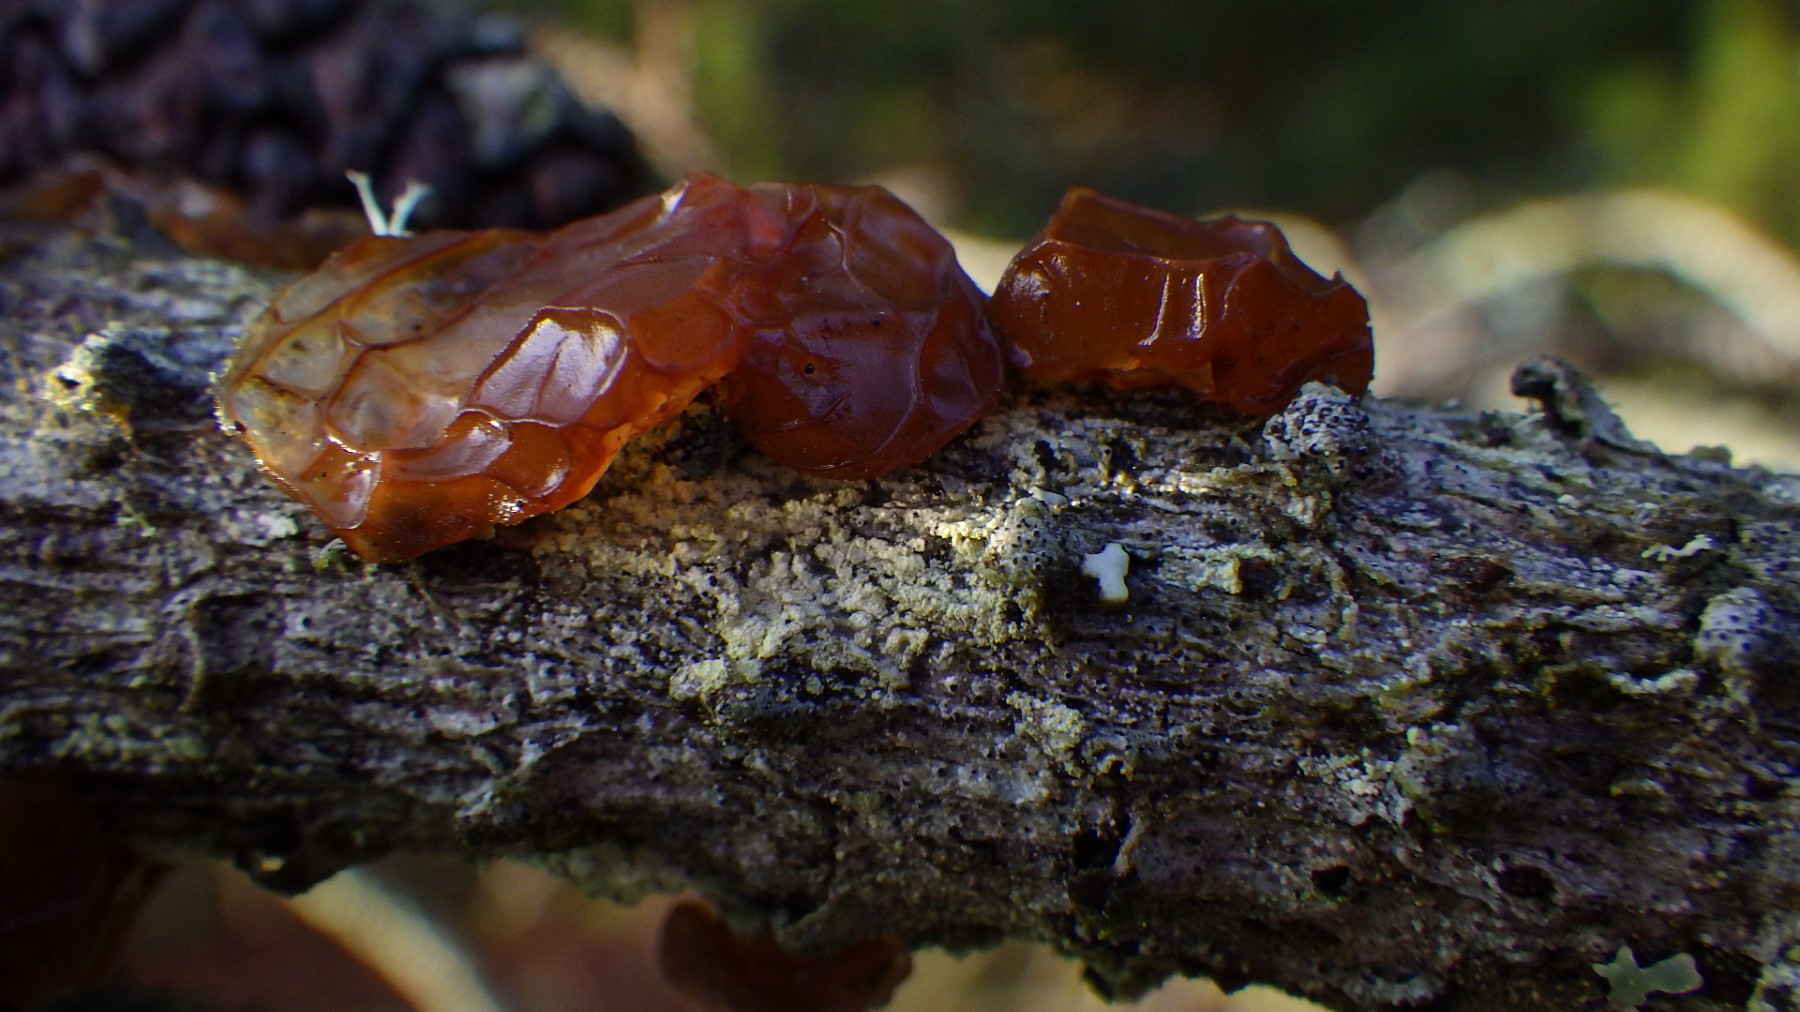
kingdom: Fungi
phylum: Basidiomycota
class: Agaricomycetes
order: Auriculariales
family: Auriculariaceae
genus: Exidia
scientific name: Exidia saccharina
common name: kandis-bævretop
